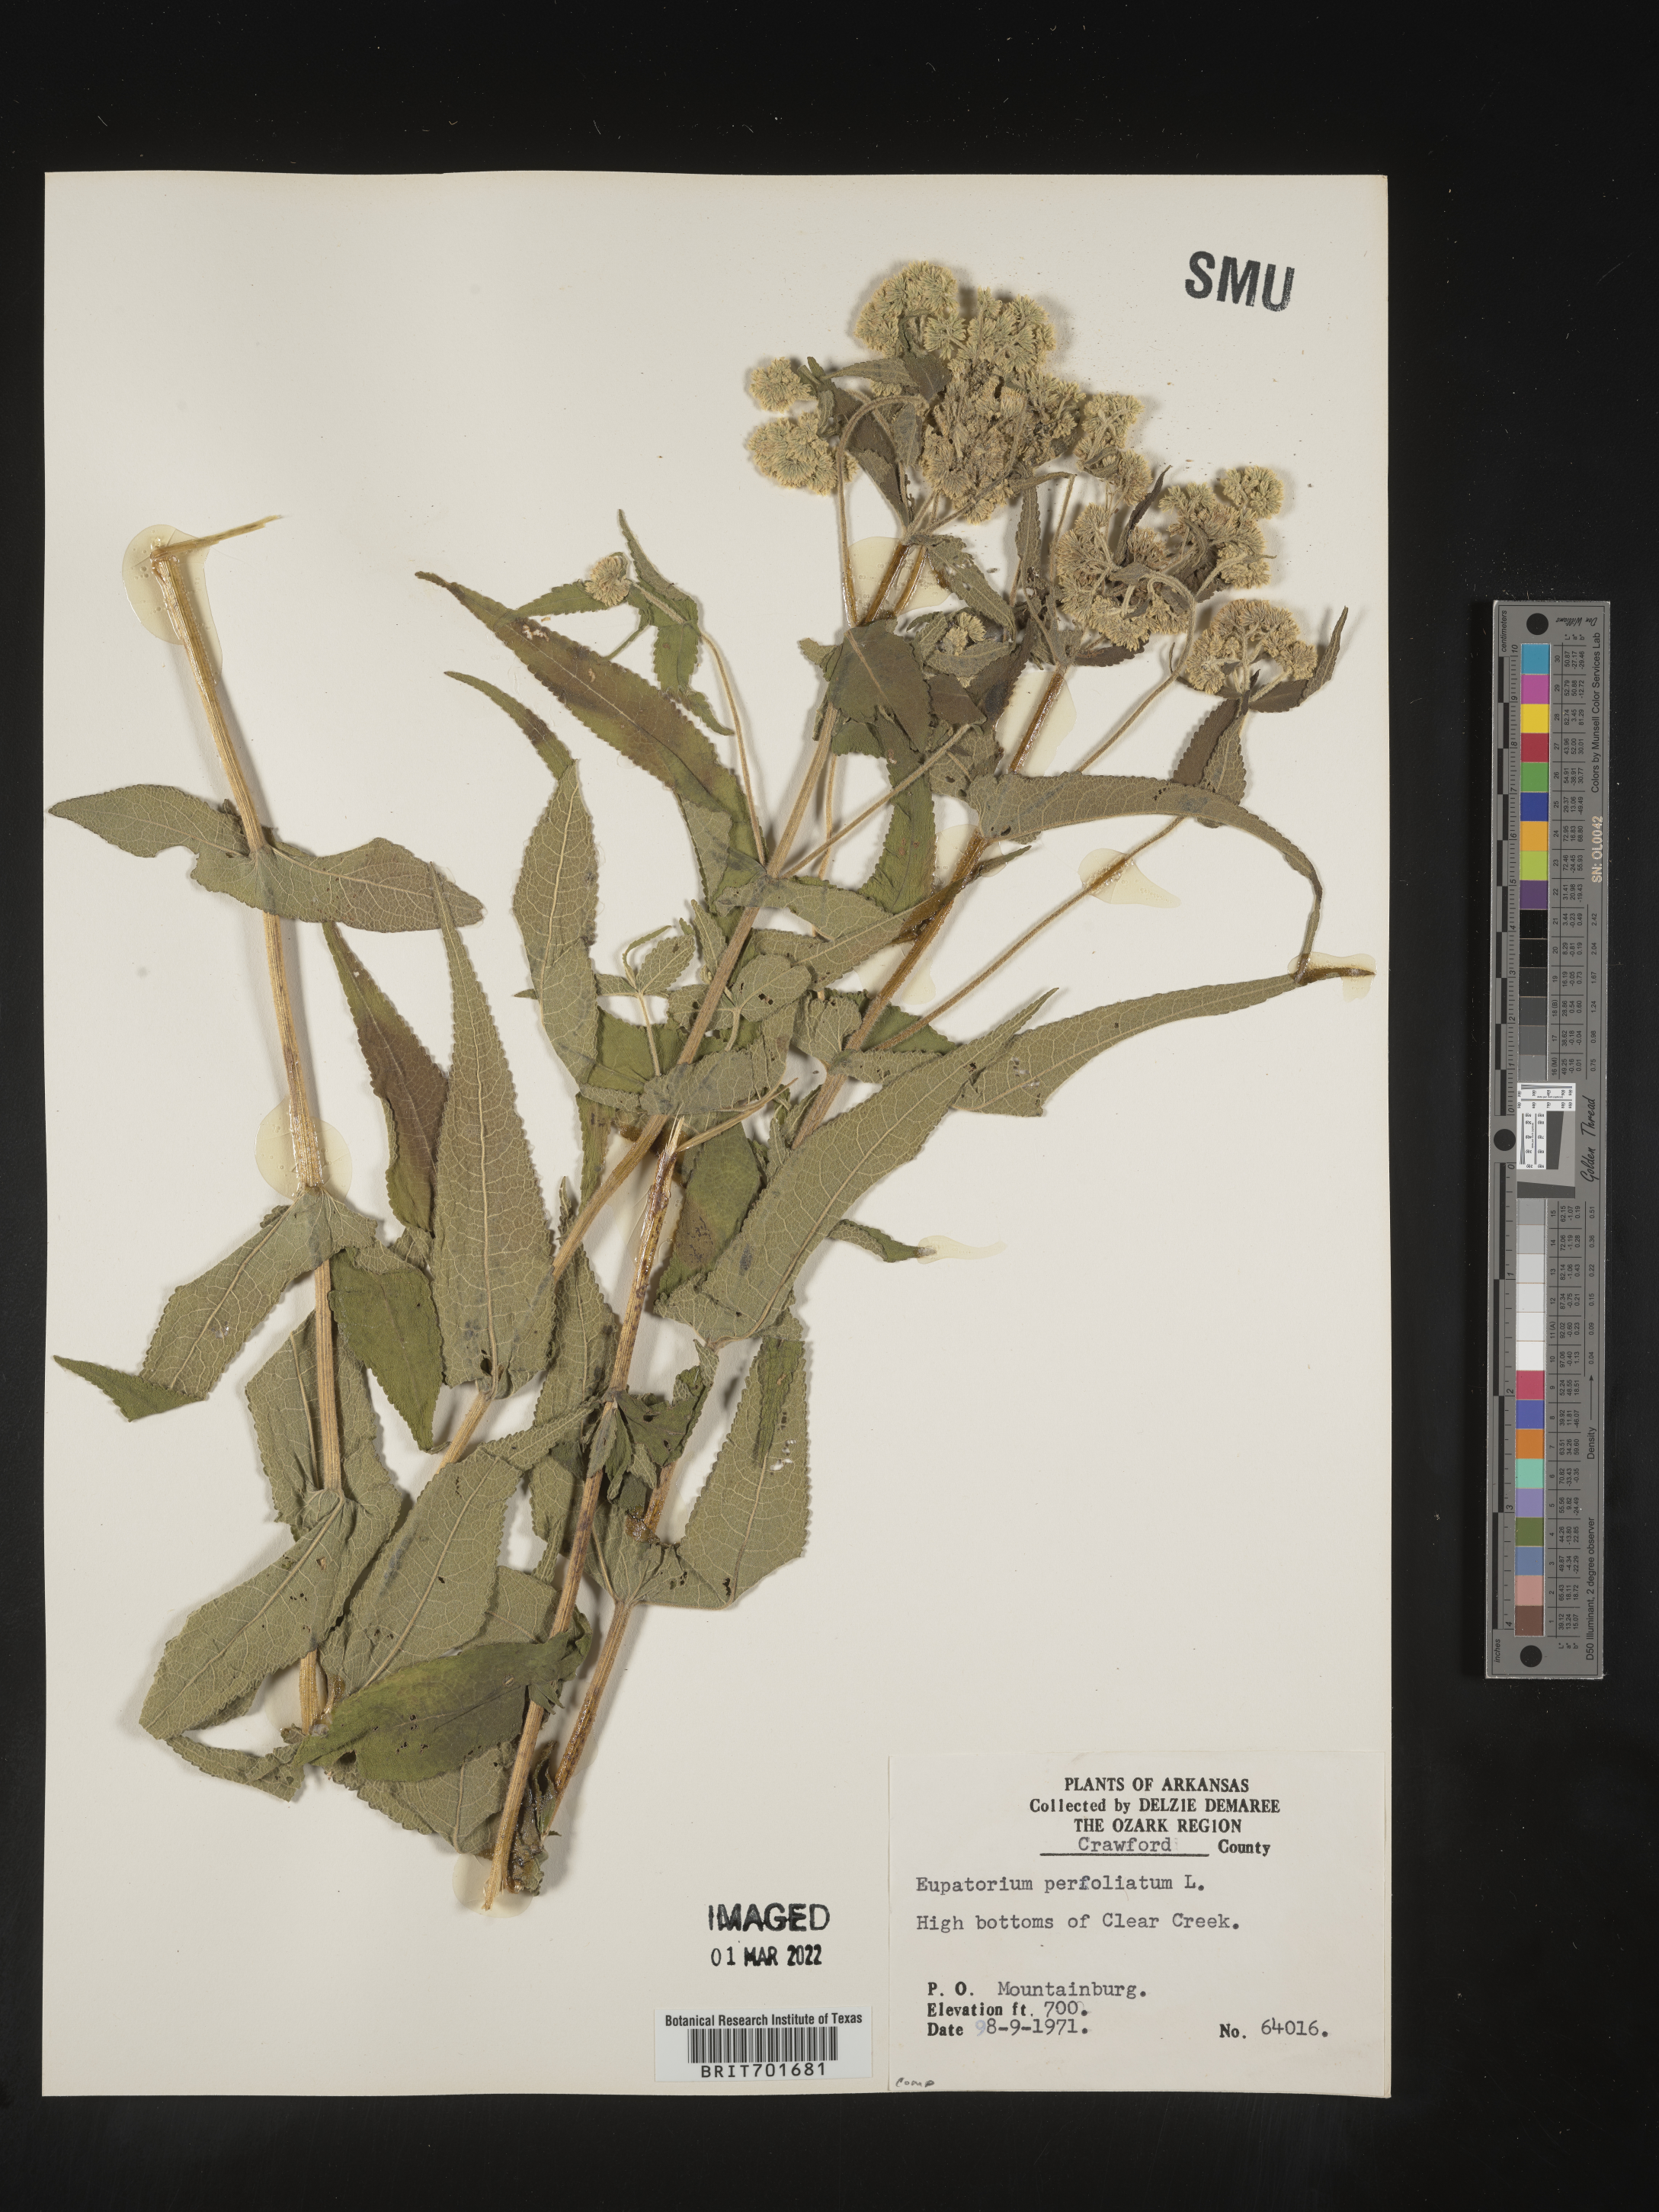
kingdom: Plantae
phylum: Tracheophyta
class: Magnoliopsida
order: Asterales
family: Asteraceae
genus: Eupatorium
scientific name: Eupatorium perfoliatum
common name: Boneset
